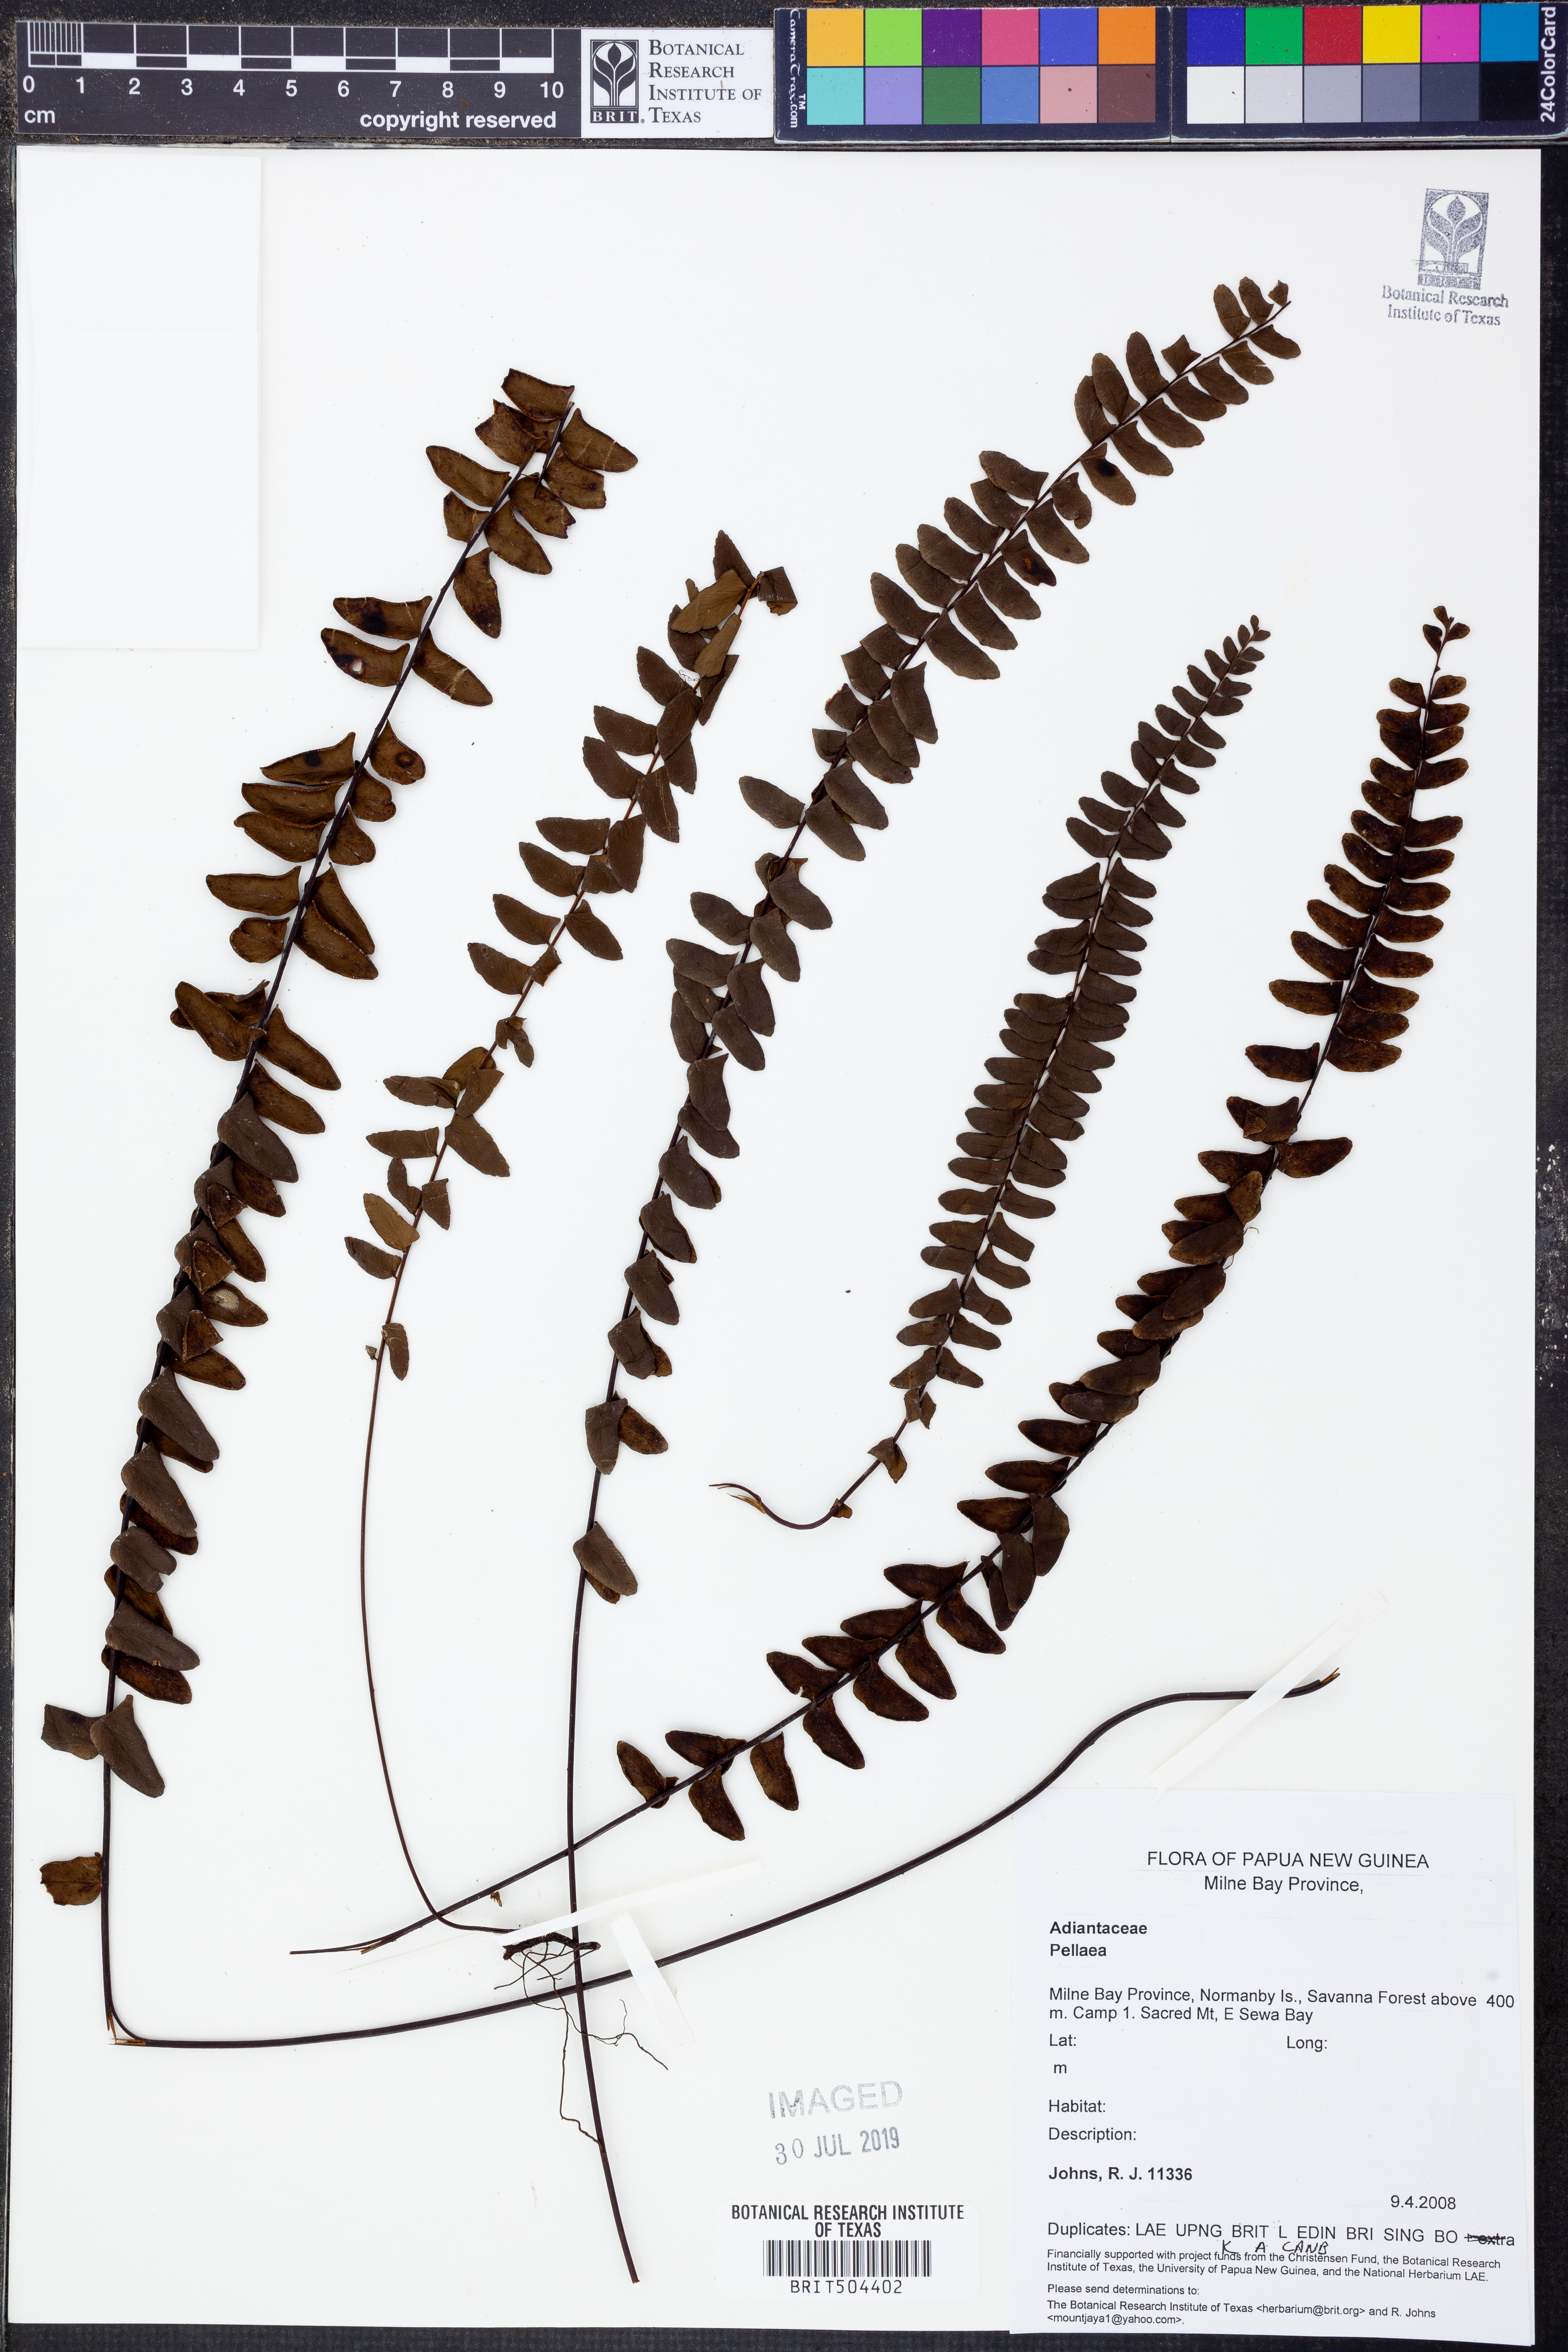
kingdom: Plantae
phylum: Tracheophyta
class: Polypodiopsida
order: Polypodiales
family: Pteridaceae
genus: Pellaea
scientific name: Pellaea
